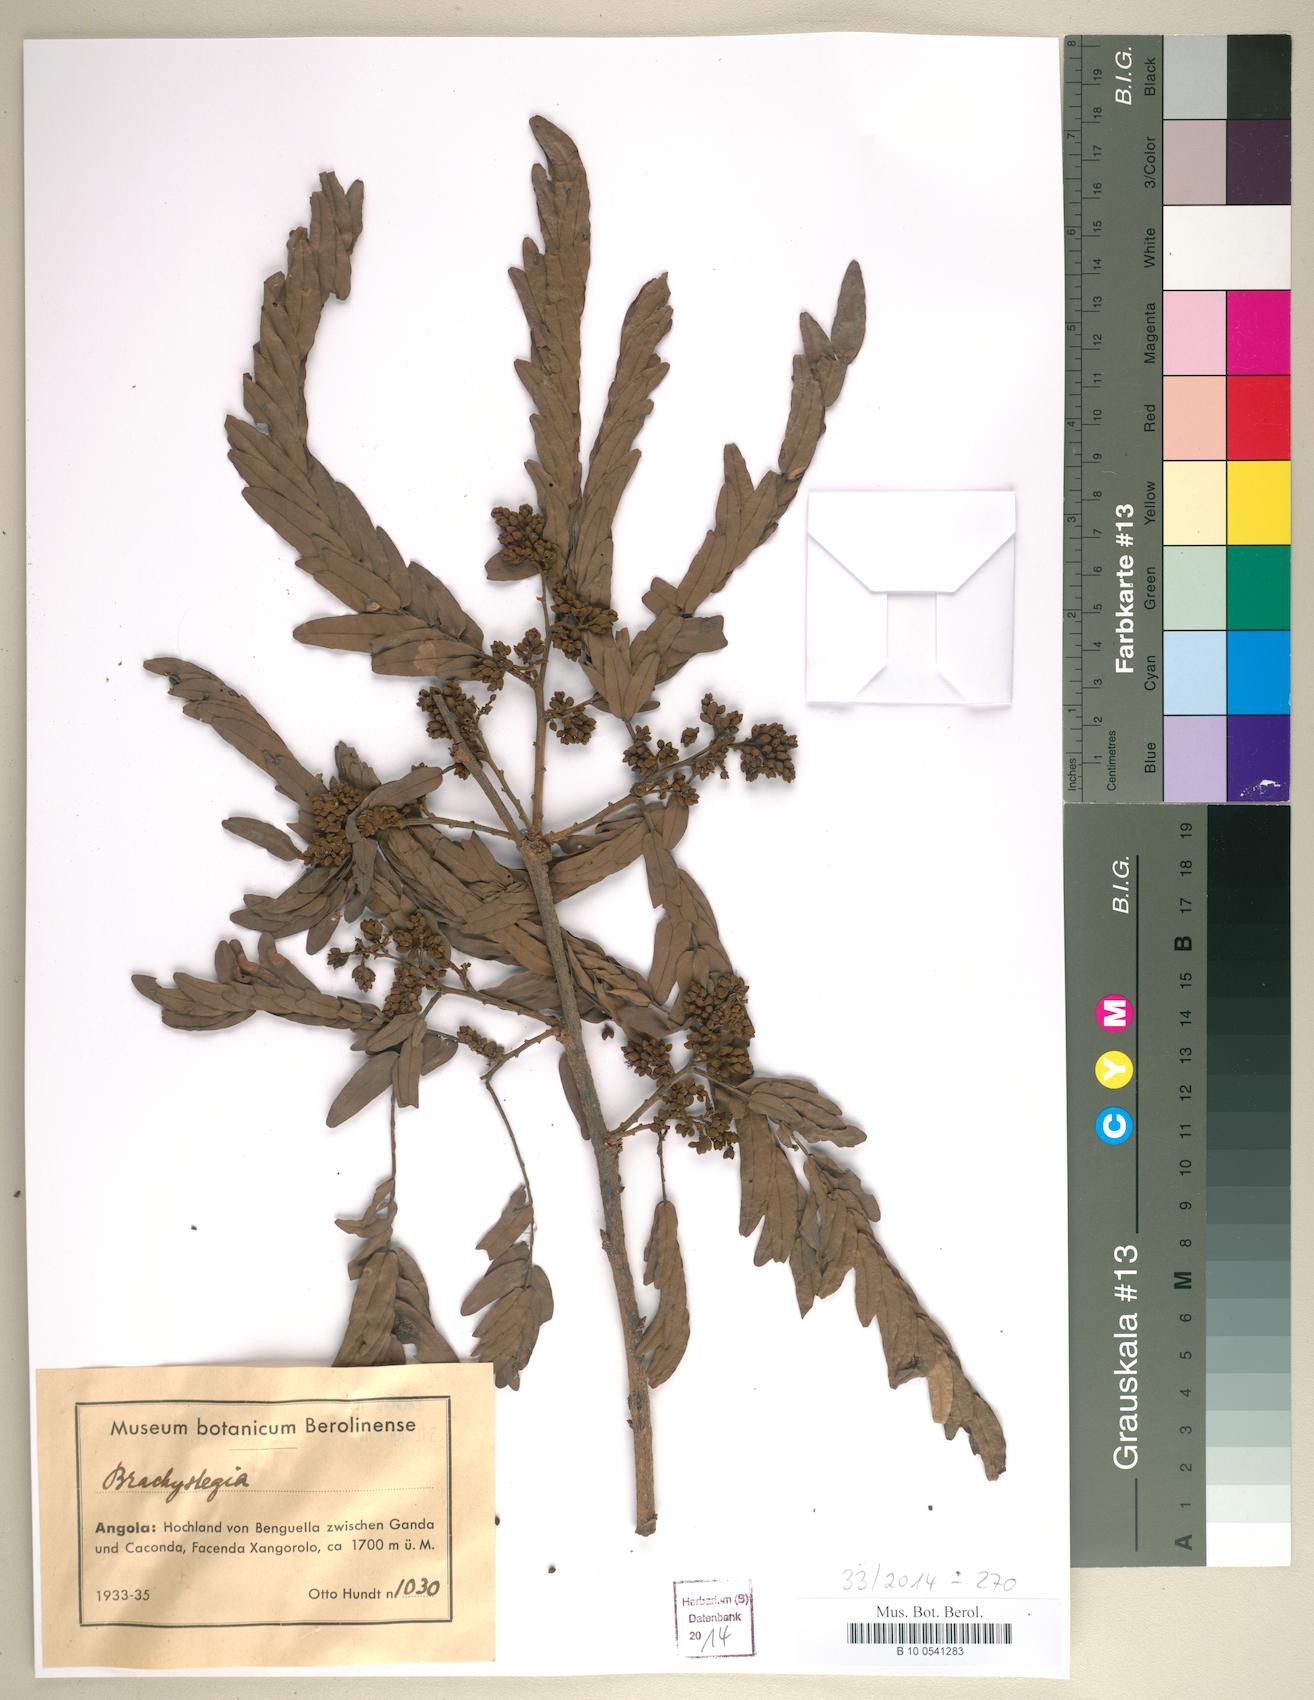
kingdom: Plantae
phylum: Tracheophyta
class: Magnoliopsida
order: Fabales
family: Fabaceae
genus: Brachystegia
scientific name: Brachystegia
